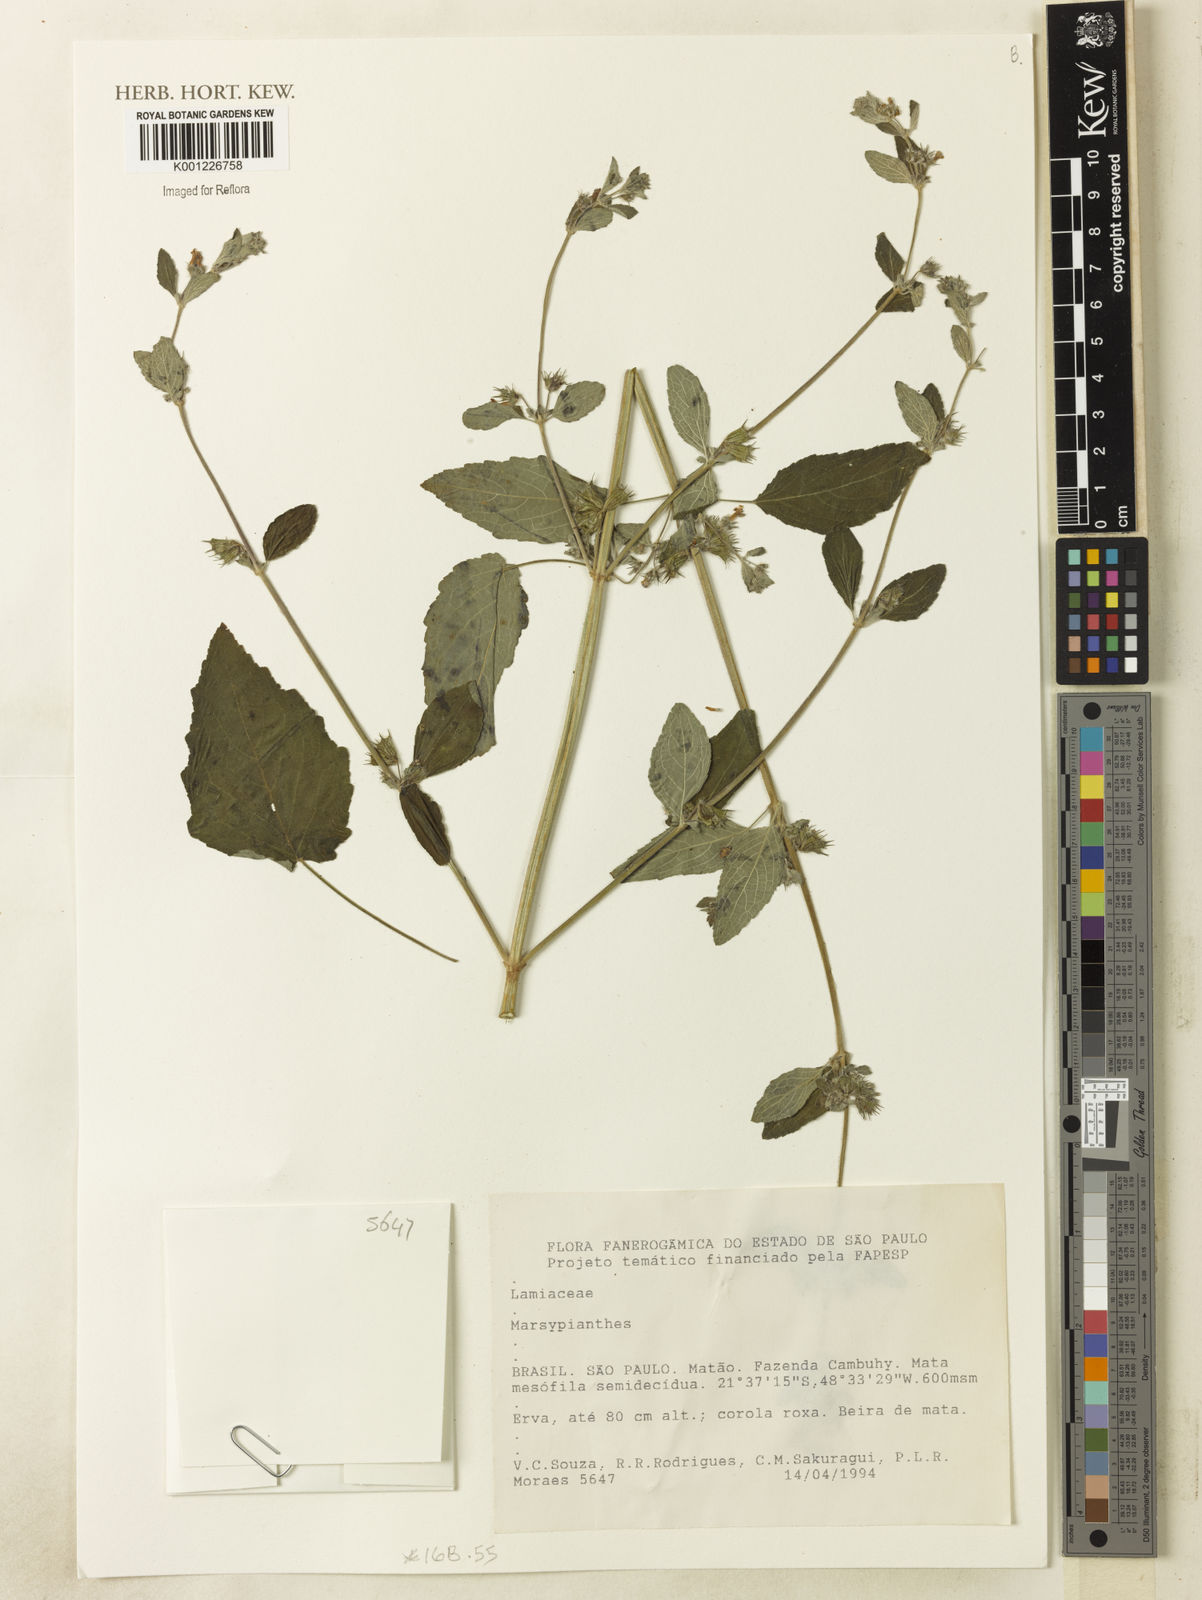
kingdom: Plantae
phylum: Tracheophyta
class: Magnoliopsida
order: Lamiales
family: Lamiaceae
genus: Marsypianthes
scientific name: Marsypianthes
